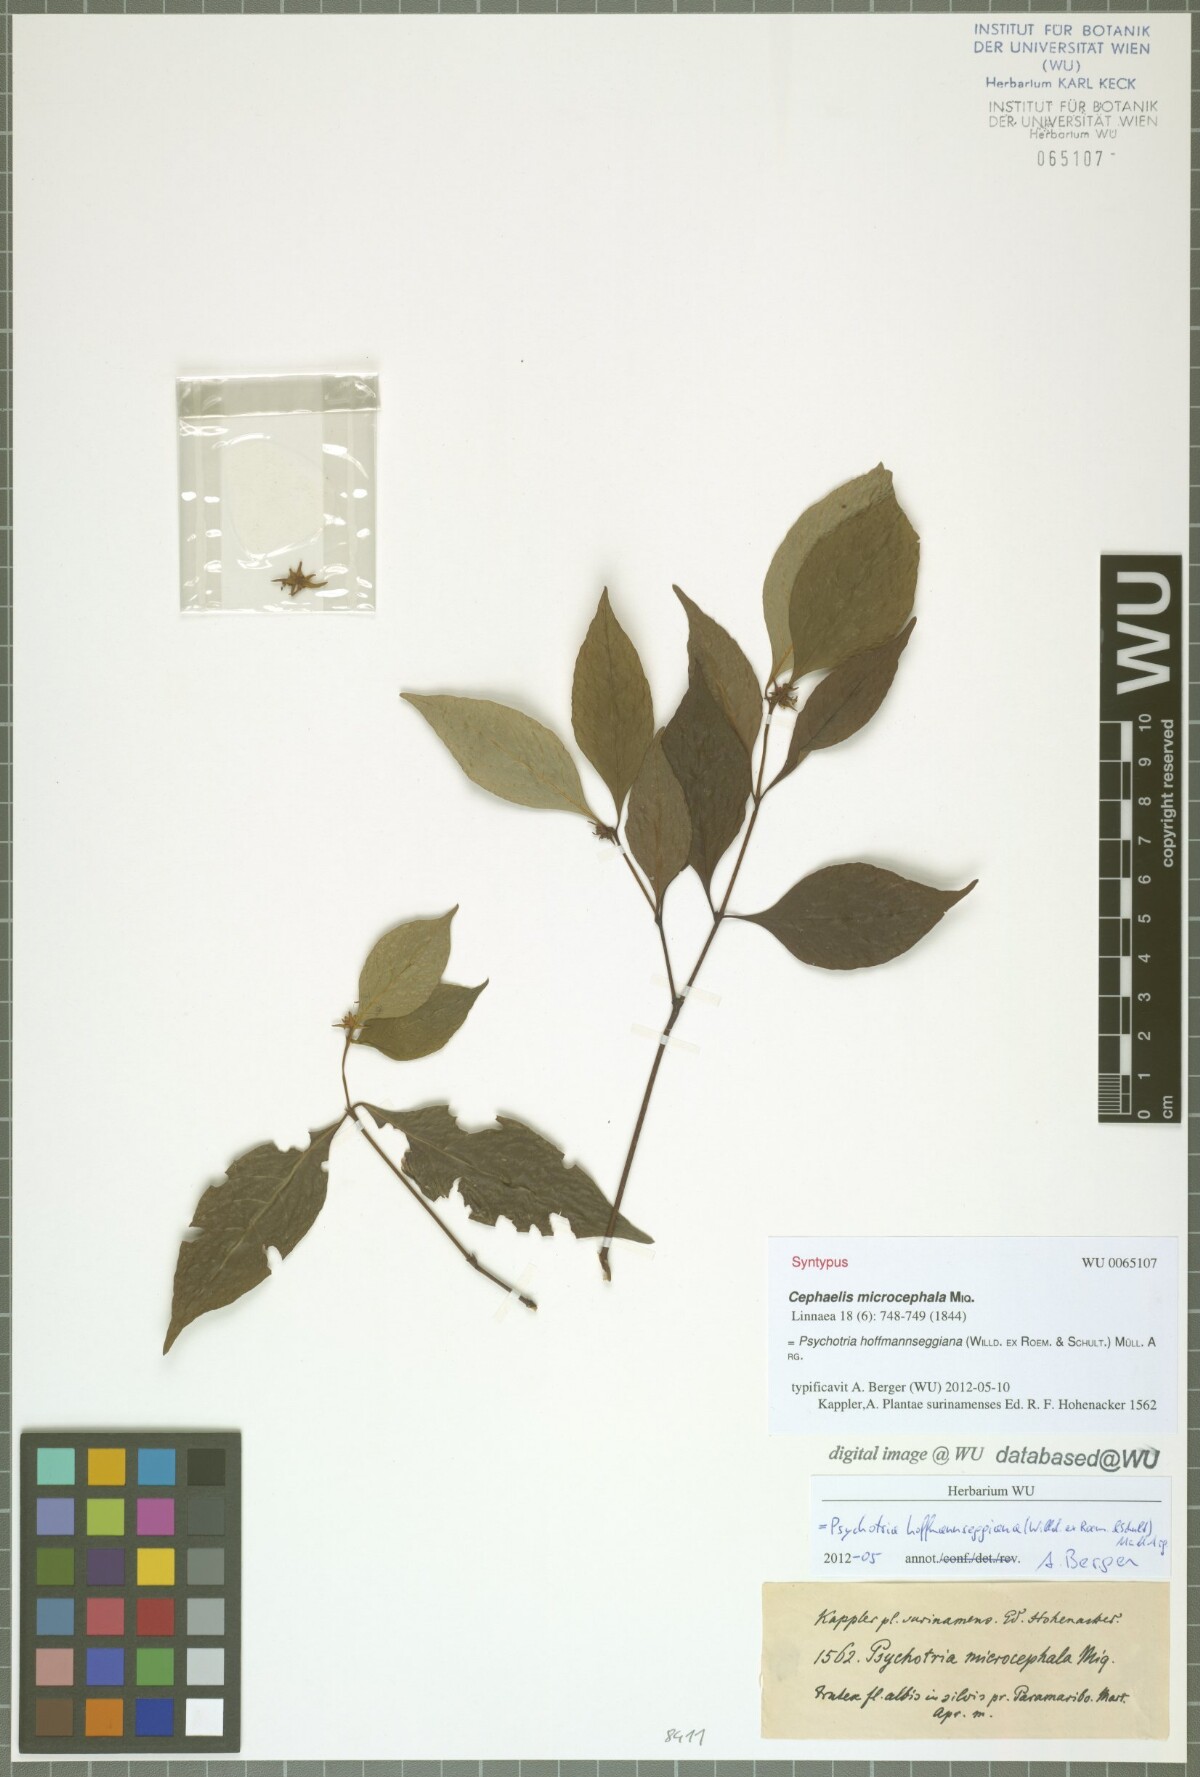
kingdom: Plantae
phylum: Tracheophyta
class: Magnoliopsida
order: Gentianales
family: Rubiaceae
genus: Palicourea
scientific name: Palicourea tenerior
